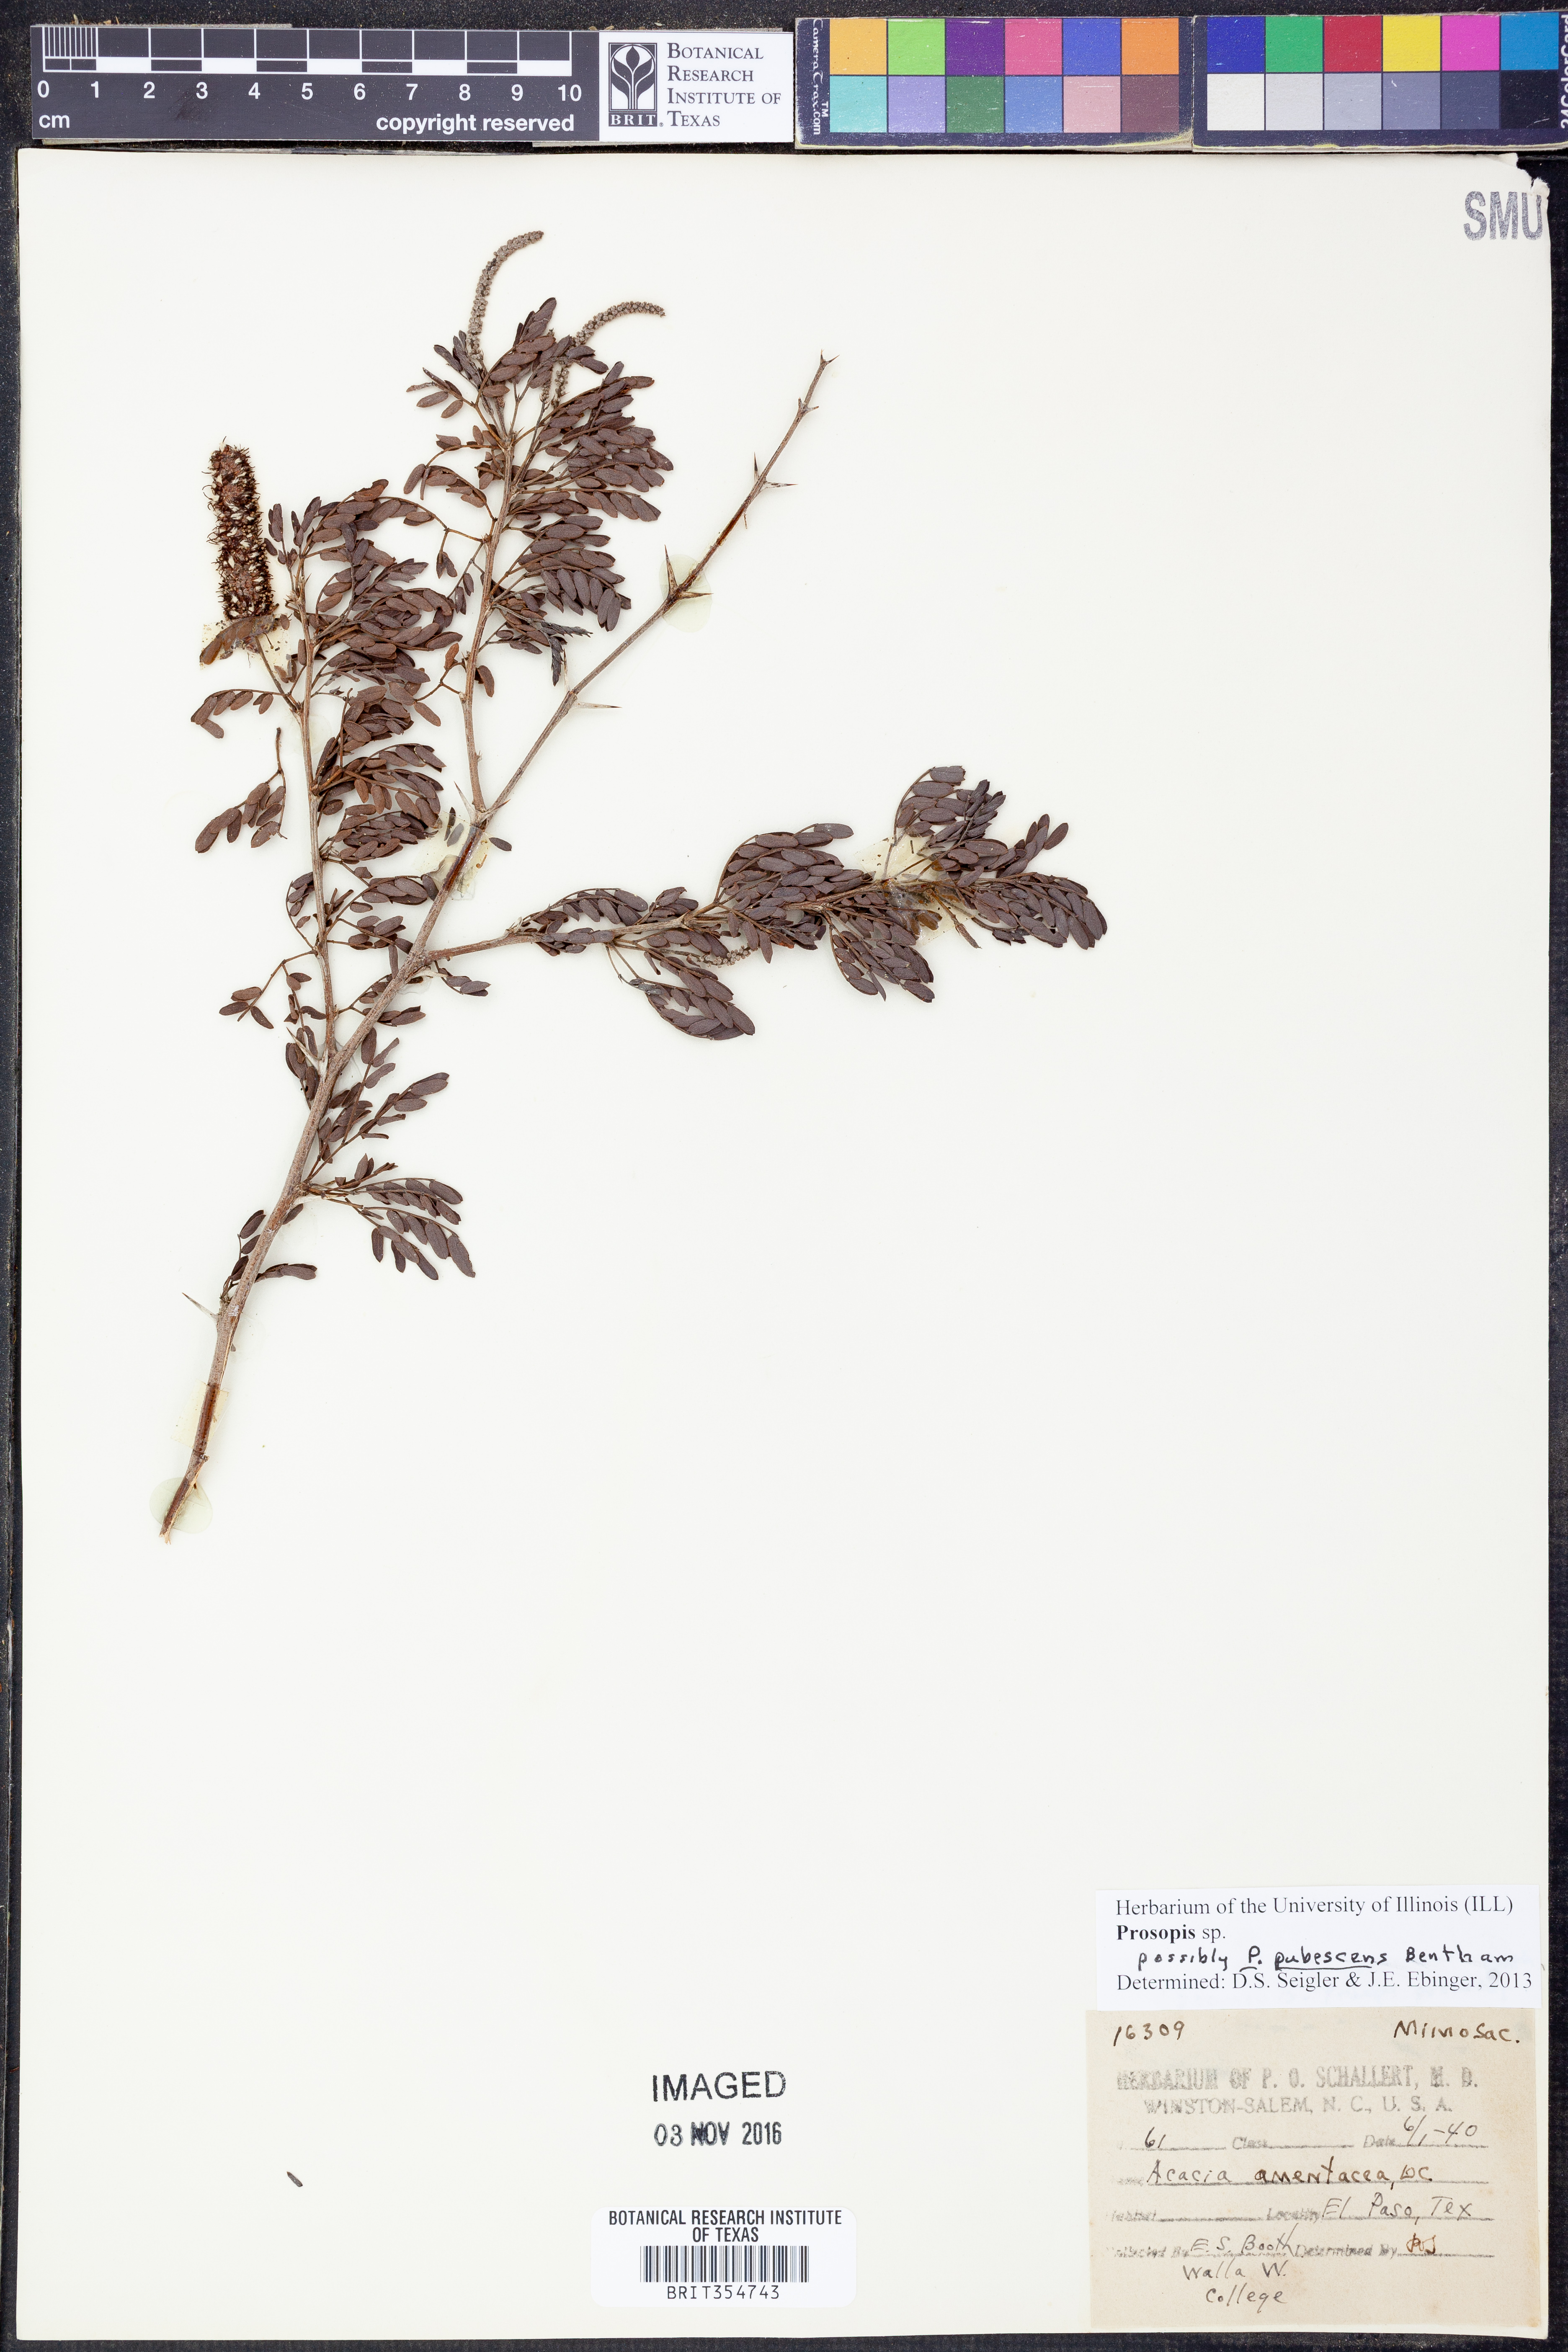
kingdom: Plantae
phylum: Tracheophyta
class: Magnoliopsida
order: Fabales
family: Fabaceae
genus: Prosopis
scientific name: Prosopis pubescens
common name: Screw-bean
